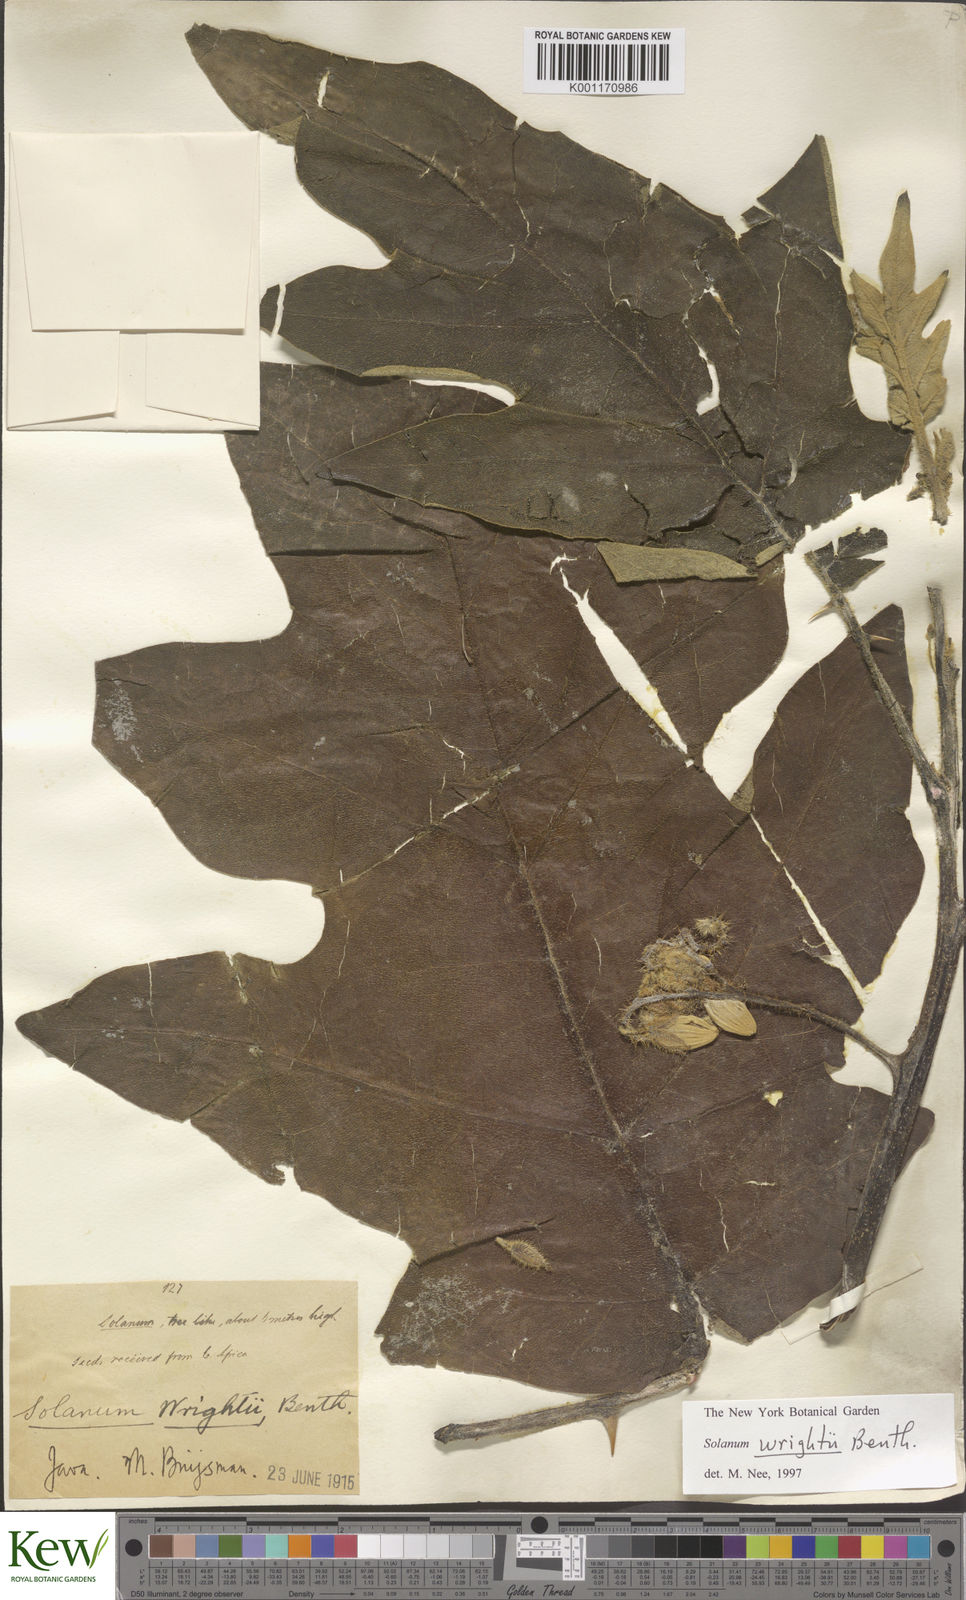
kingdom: Plantae
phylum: Tracheophyta
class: Magnoliopsida
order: Solanales
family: Solanaceae
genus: Solanum
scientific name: Solanum wrightii
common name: Brazilian potato-tree
